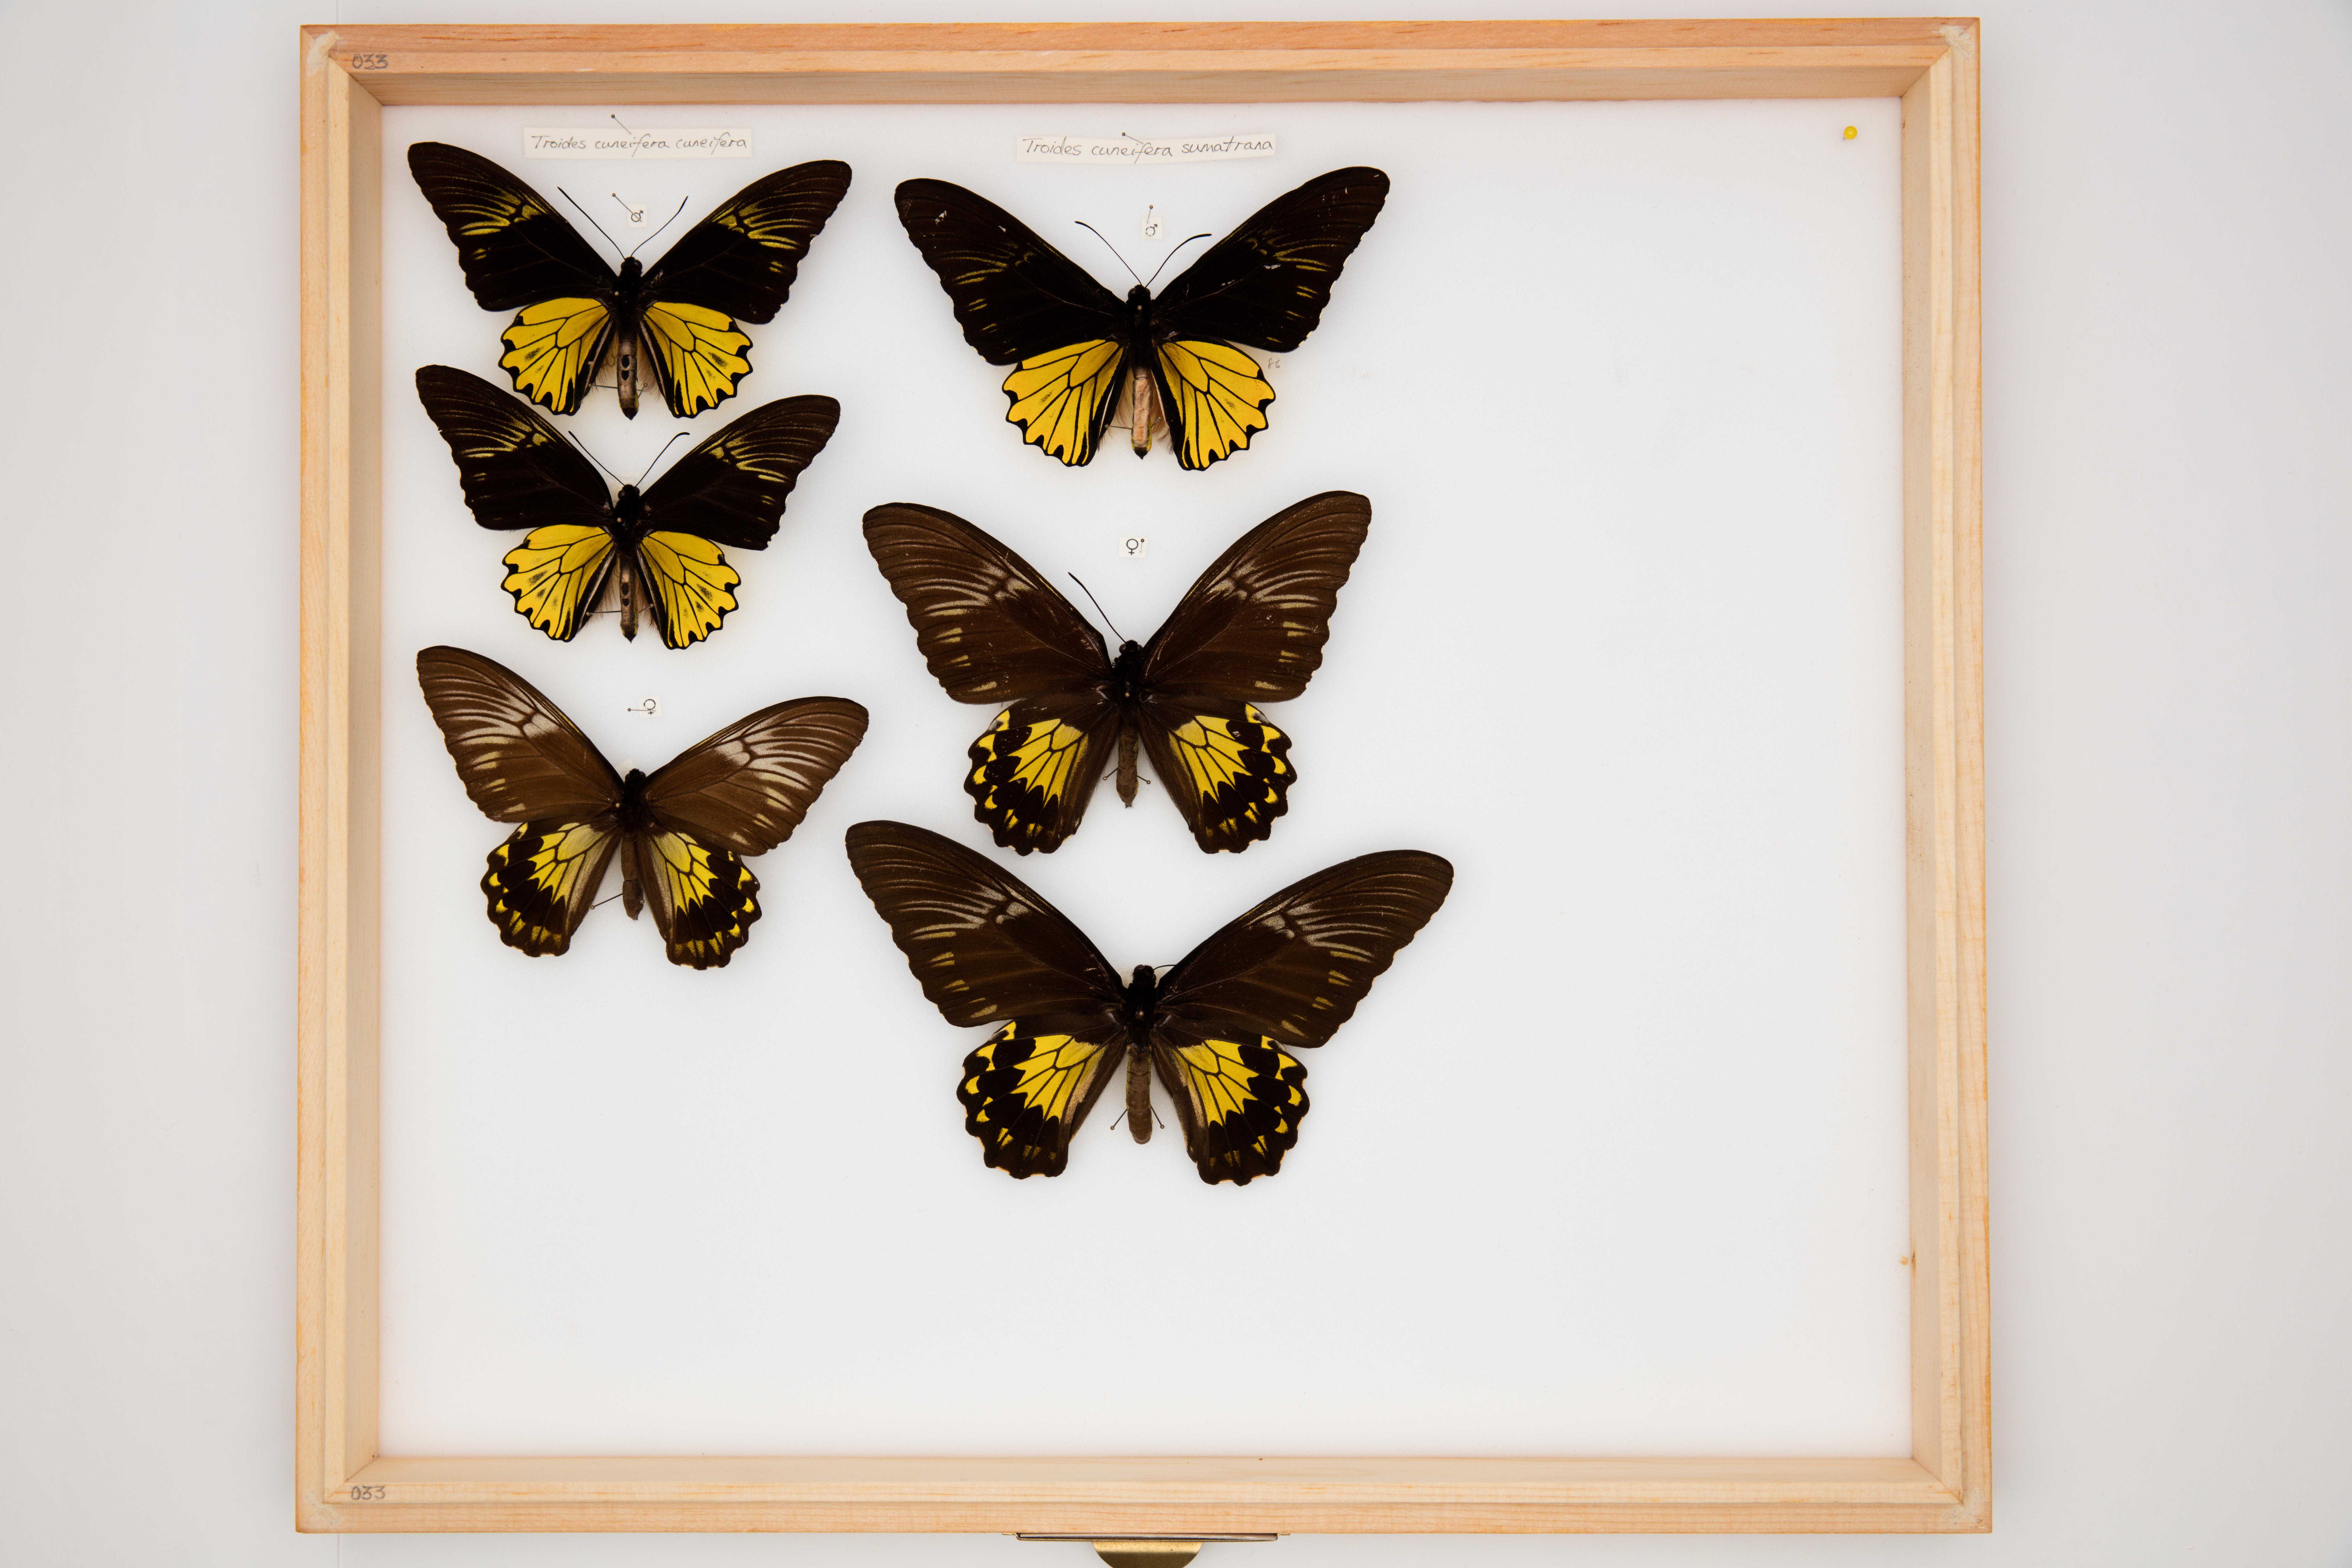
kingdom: Animalia
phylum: Arthropoda
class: Insecta
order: Lepidoptera
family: Papilionidae
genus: Troides
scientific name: Troides cuneifera
